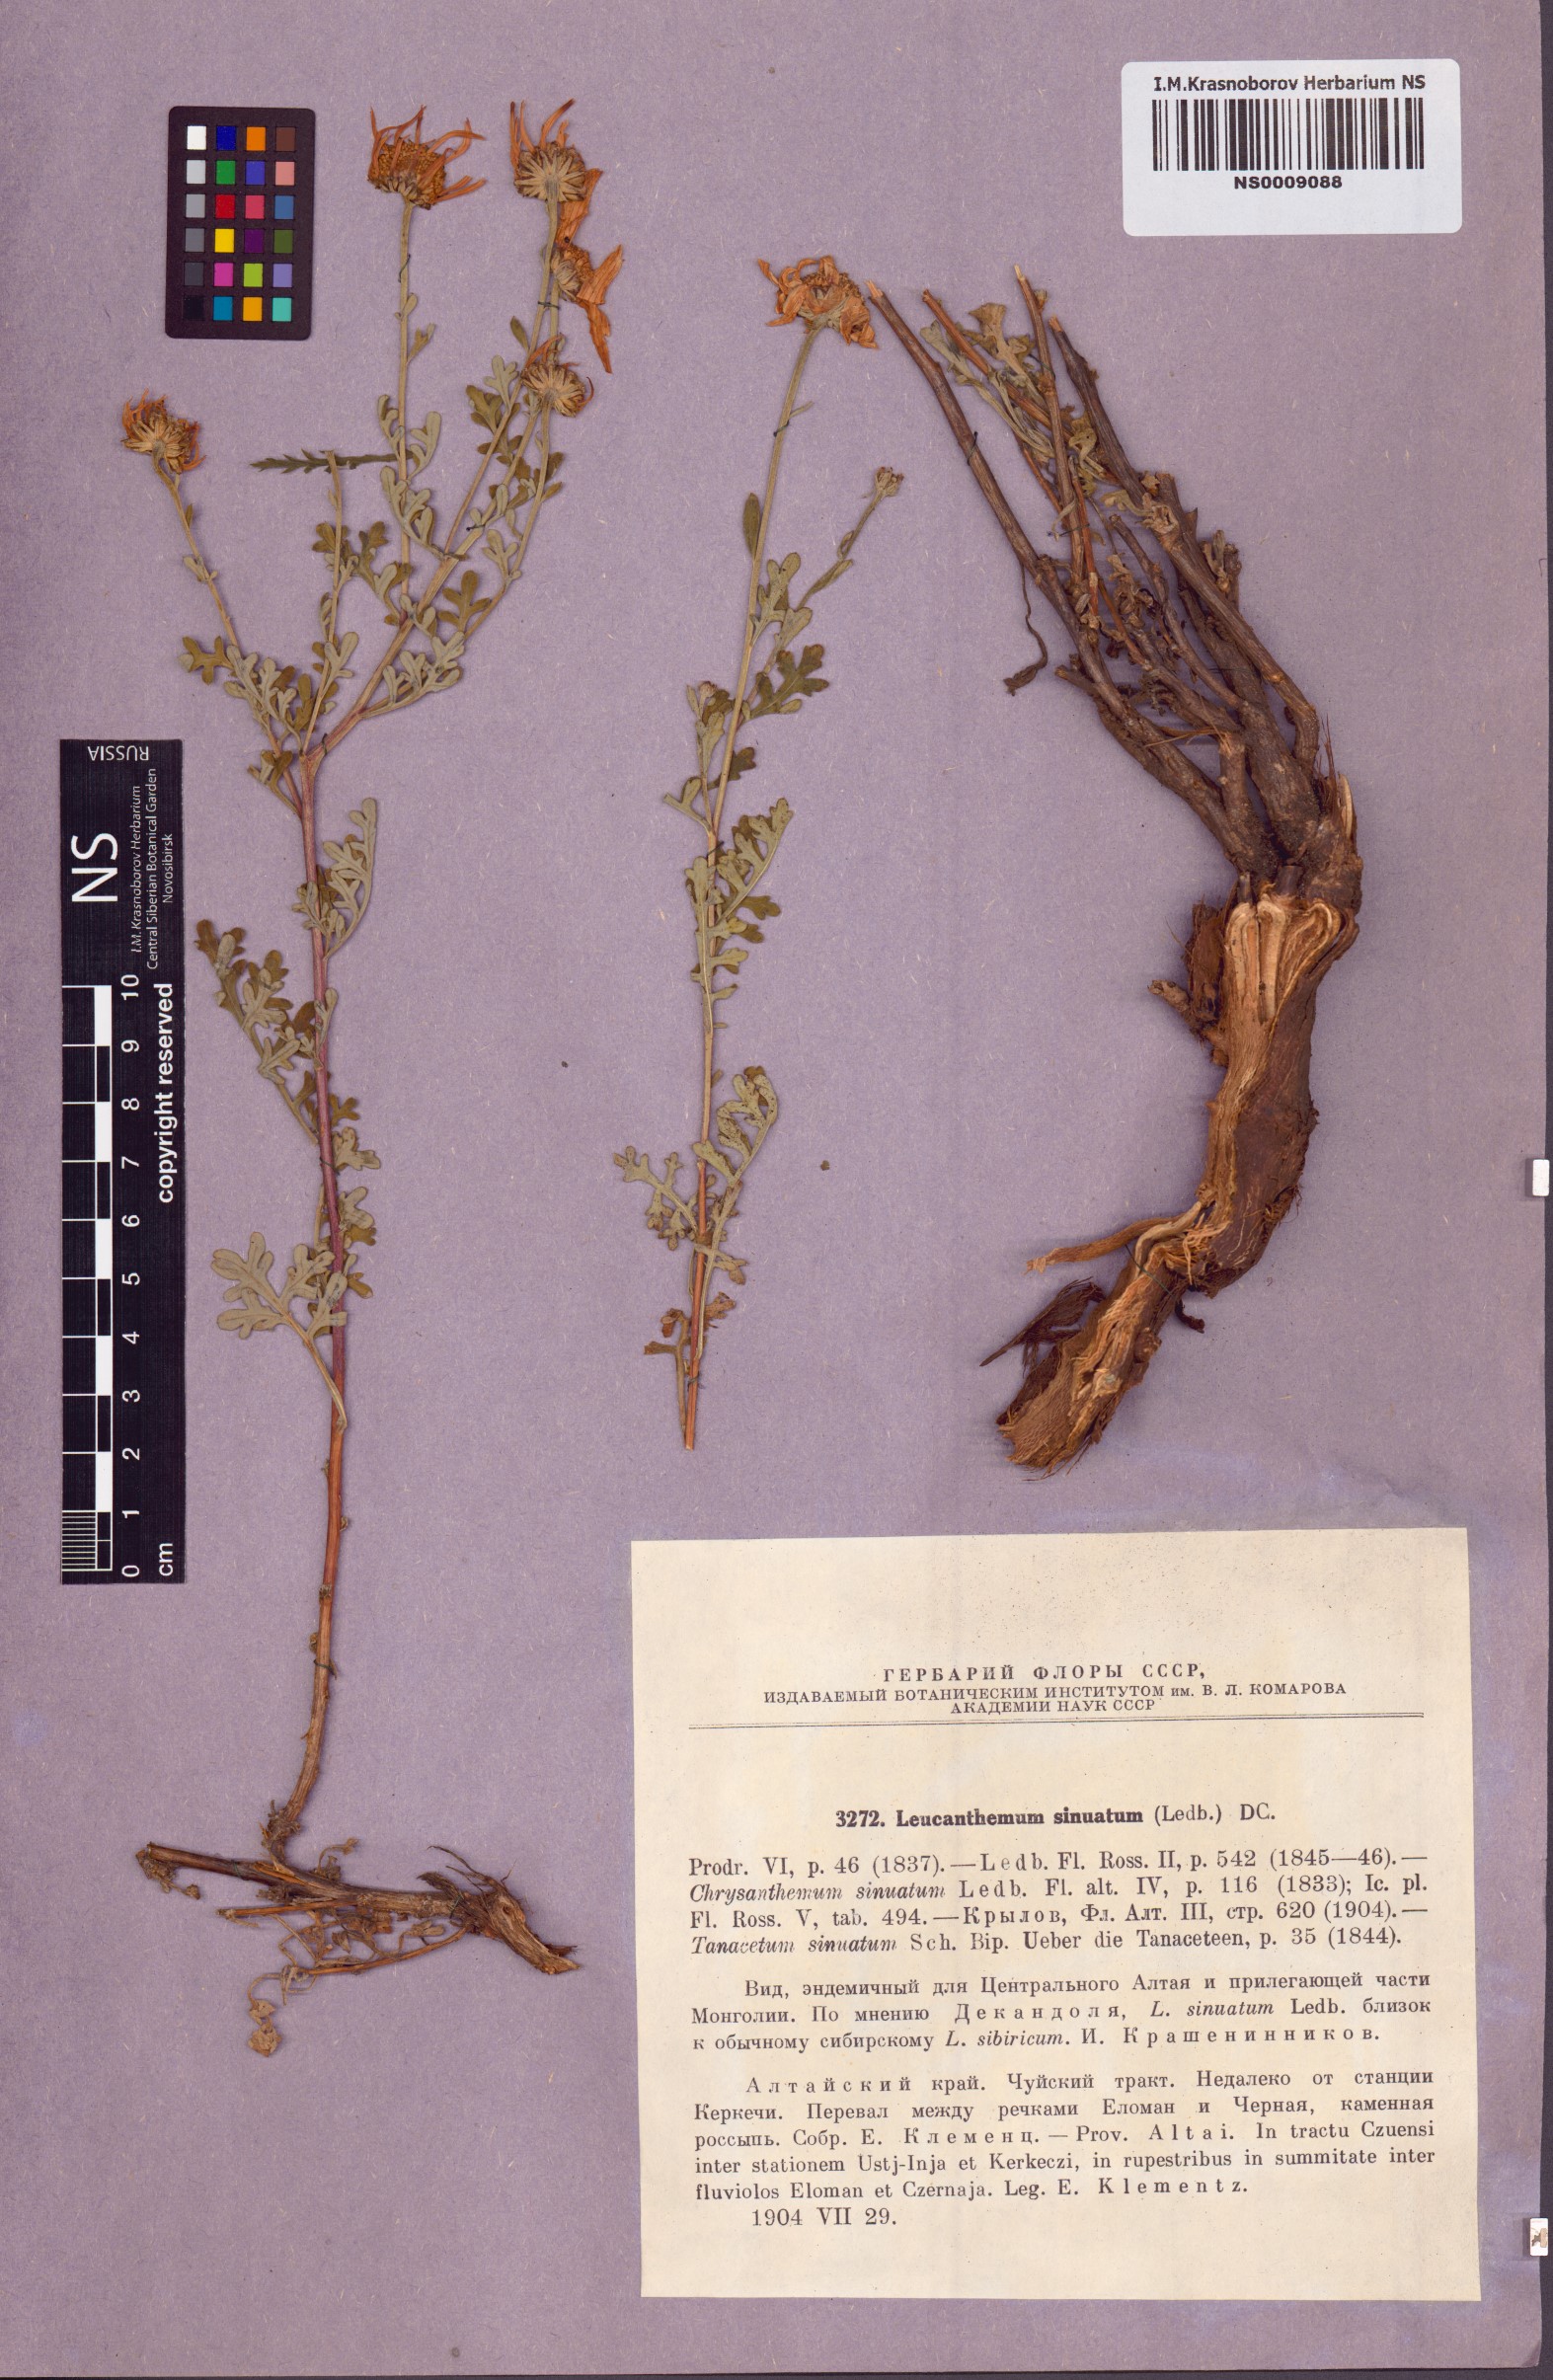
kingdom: Plantae
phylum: Tracheophyta
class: Magnoliopsida
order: Asterales
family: Asteraceae
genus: Chrysanthemum
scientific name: Chrysanthemum sinuatum
